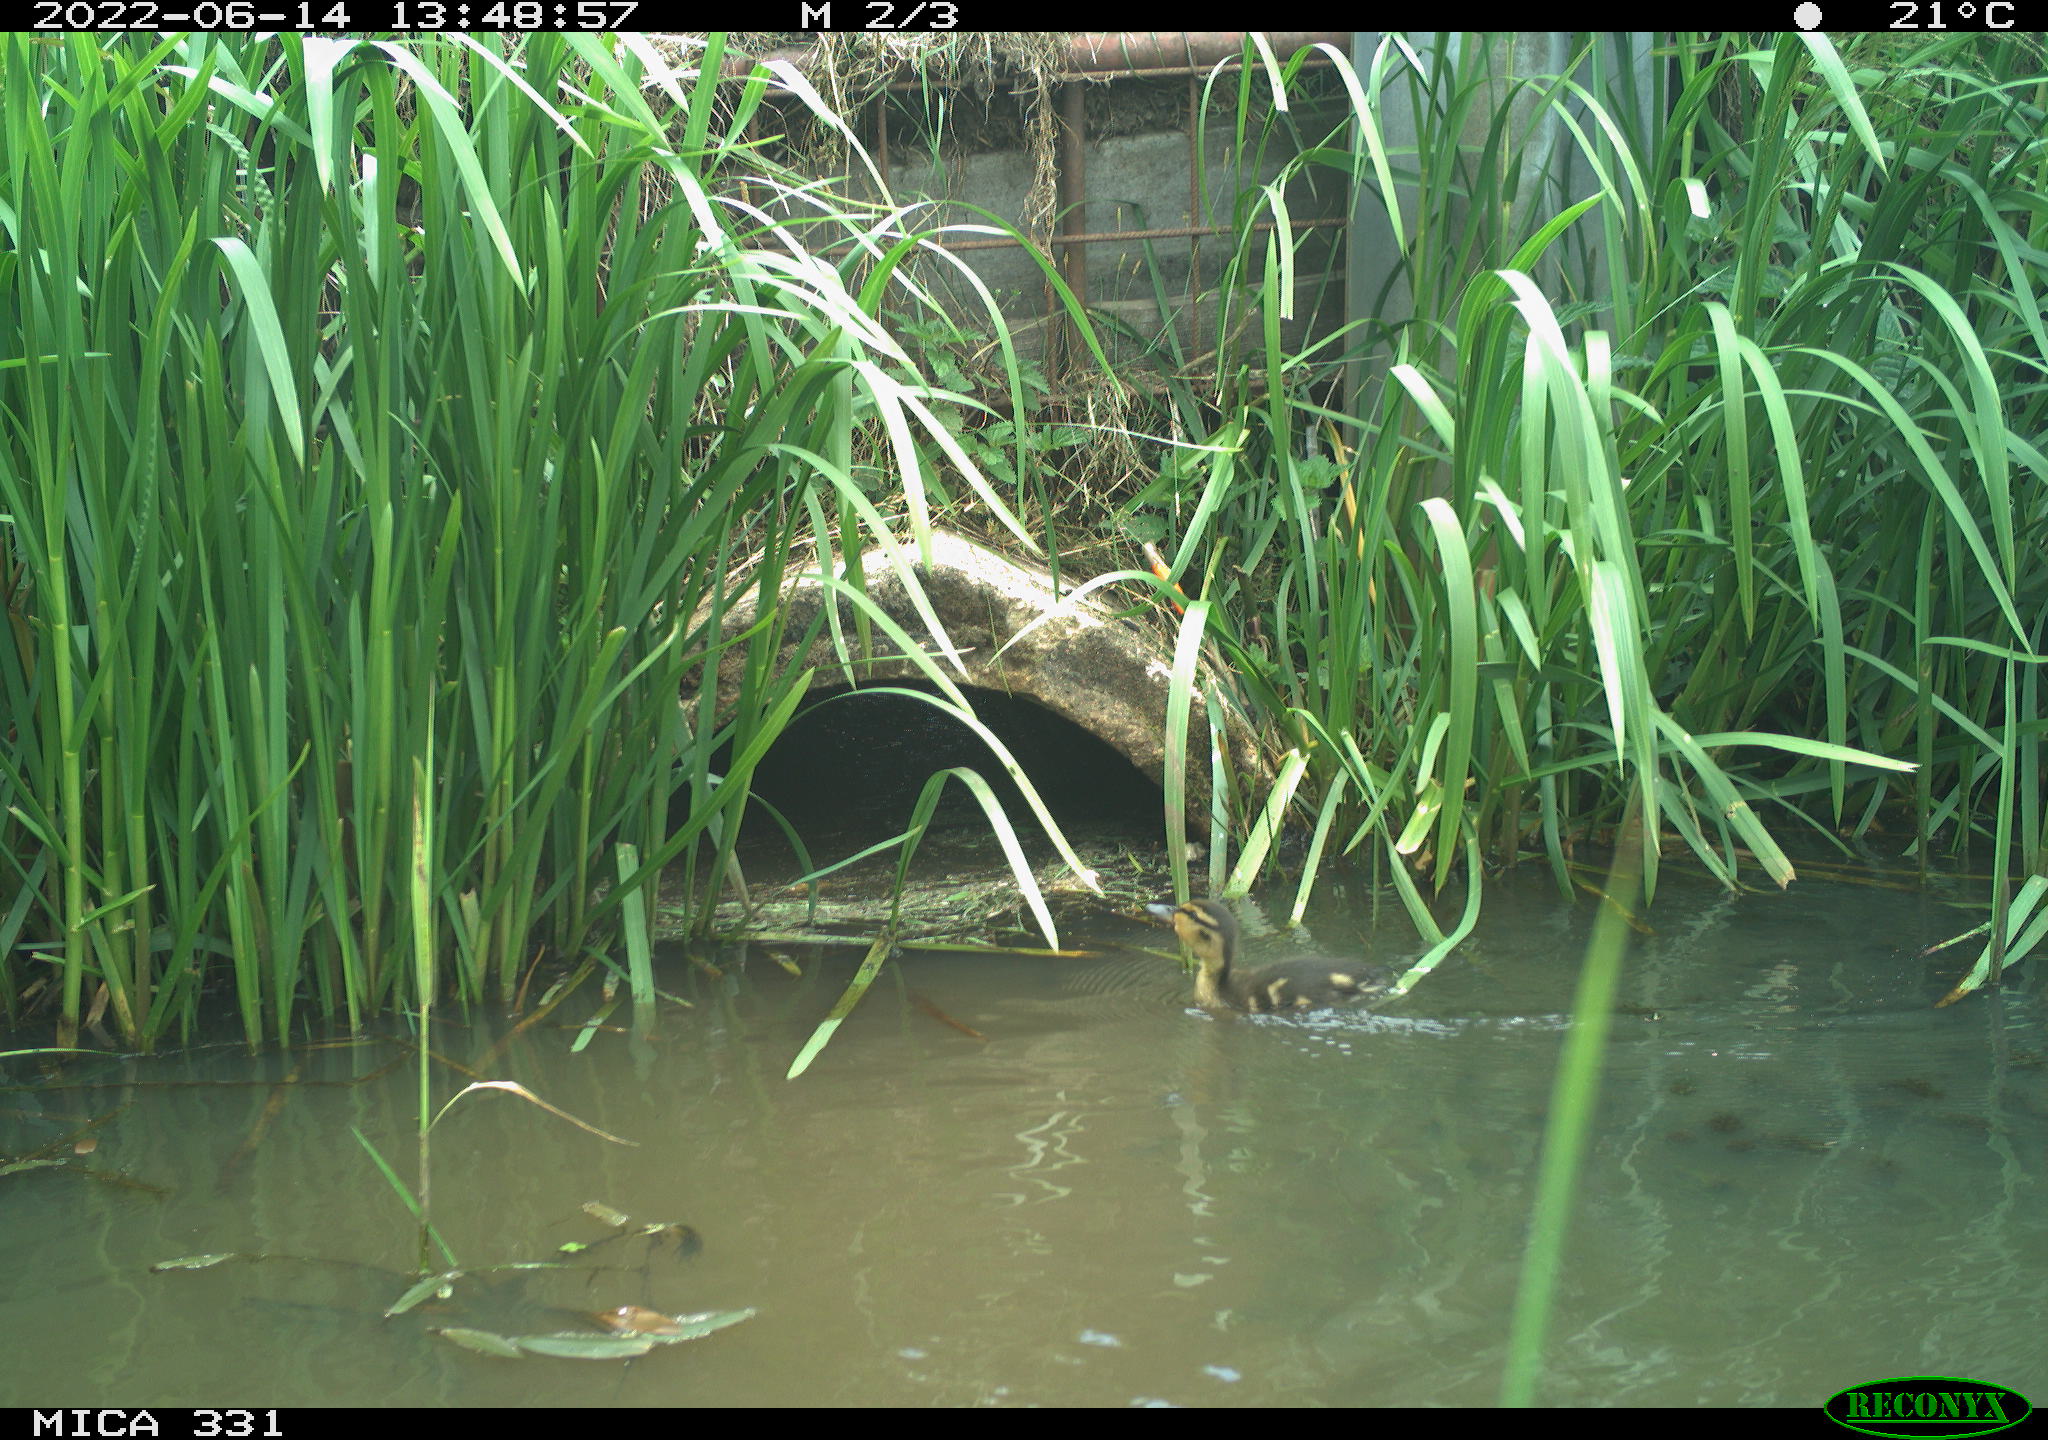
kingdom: Animalia
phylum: Chordata
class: Aves
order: Anseriformes
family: Anatidae
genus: Anas
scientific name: Anas platyrhynchos
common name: Mallard
